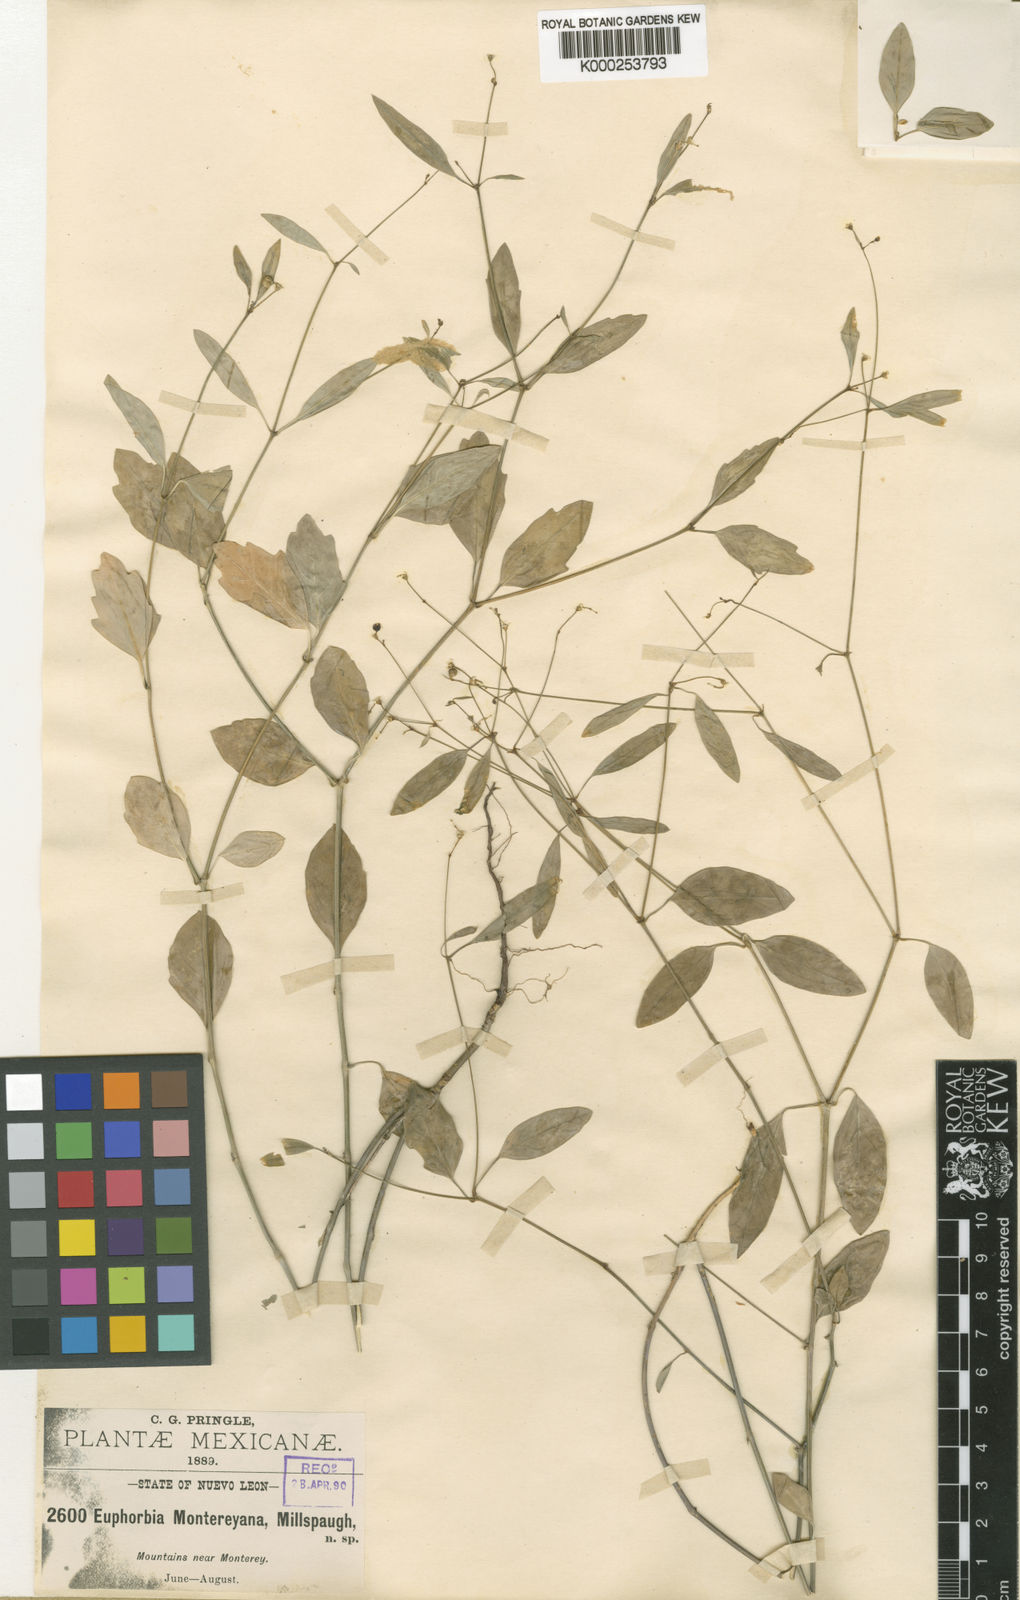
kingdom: Plantae
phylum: Tracheophyta
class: Magnoliopsida
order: Malpighiales
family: Euphorbiaceae
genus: Euphorbia
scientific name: Euphorbia graminea
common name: Grassleaf spurge
